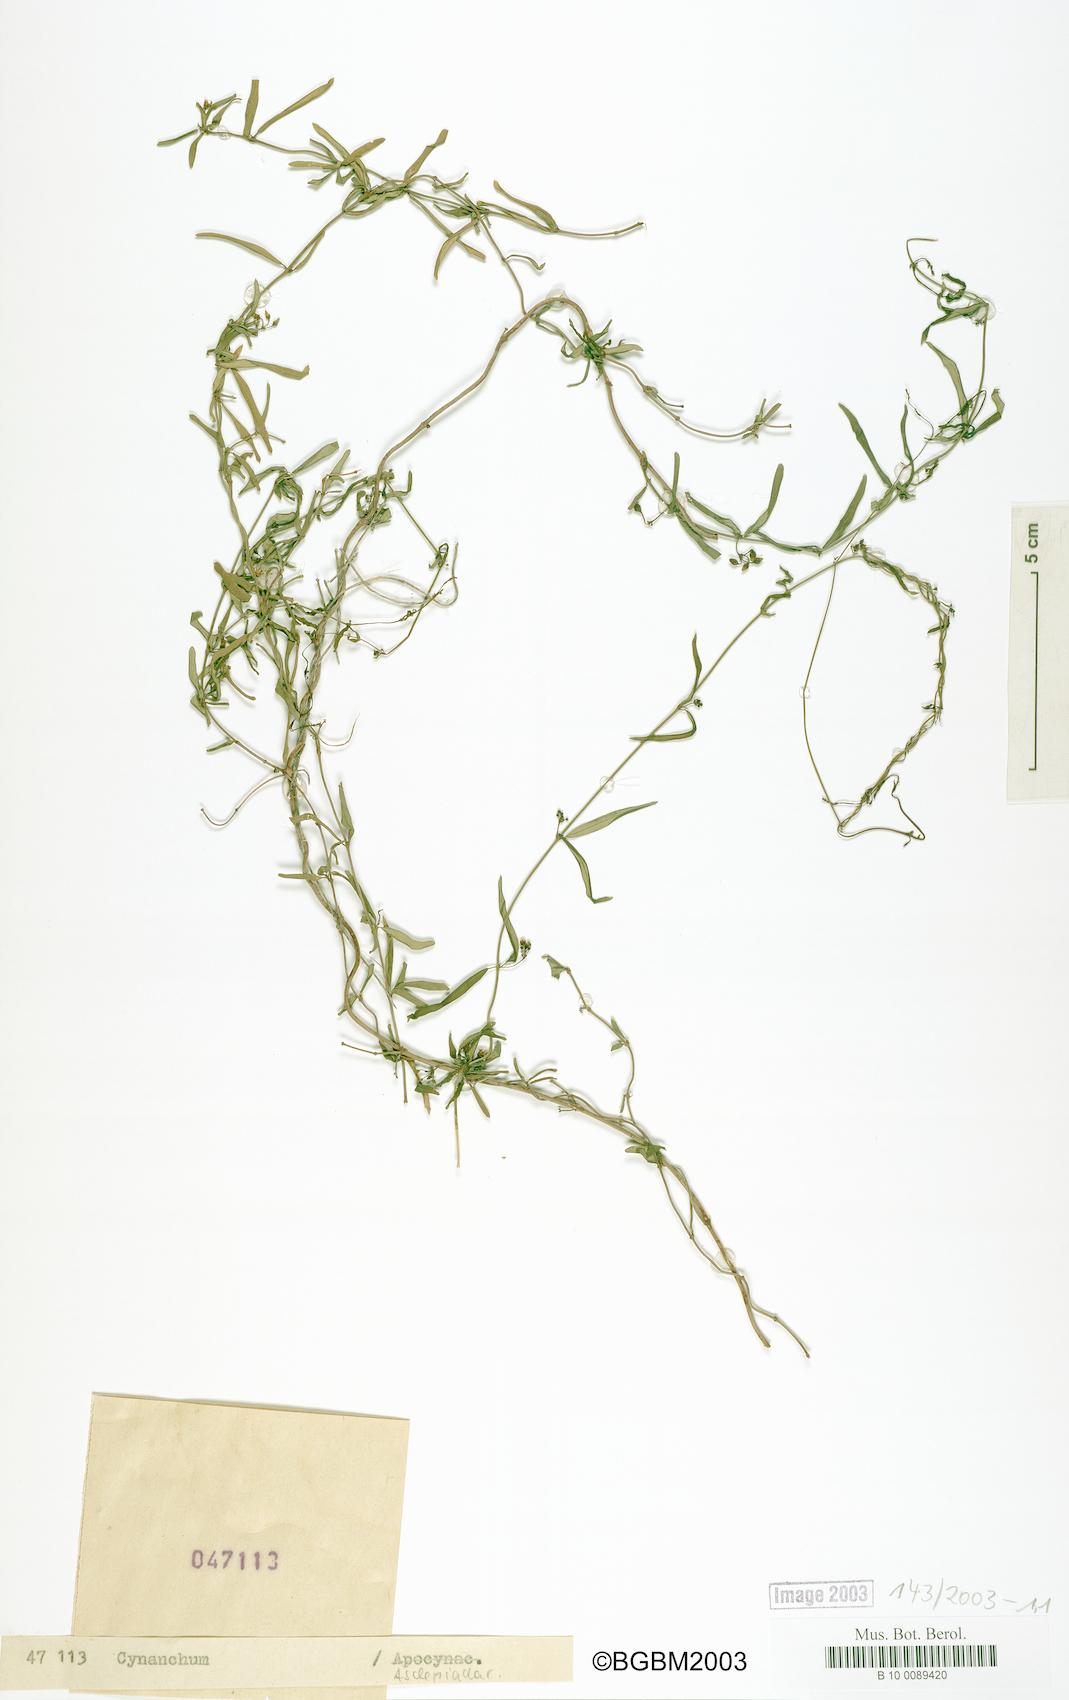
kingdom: Plantae
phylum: Tracheophyta
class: Magnoliopsida
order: Gentianales
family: Apocynaceae
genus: Metastelma
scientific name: Metastelma penicillatum
